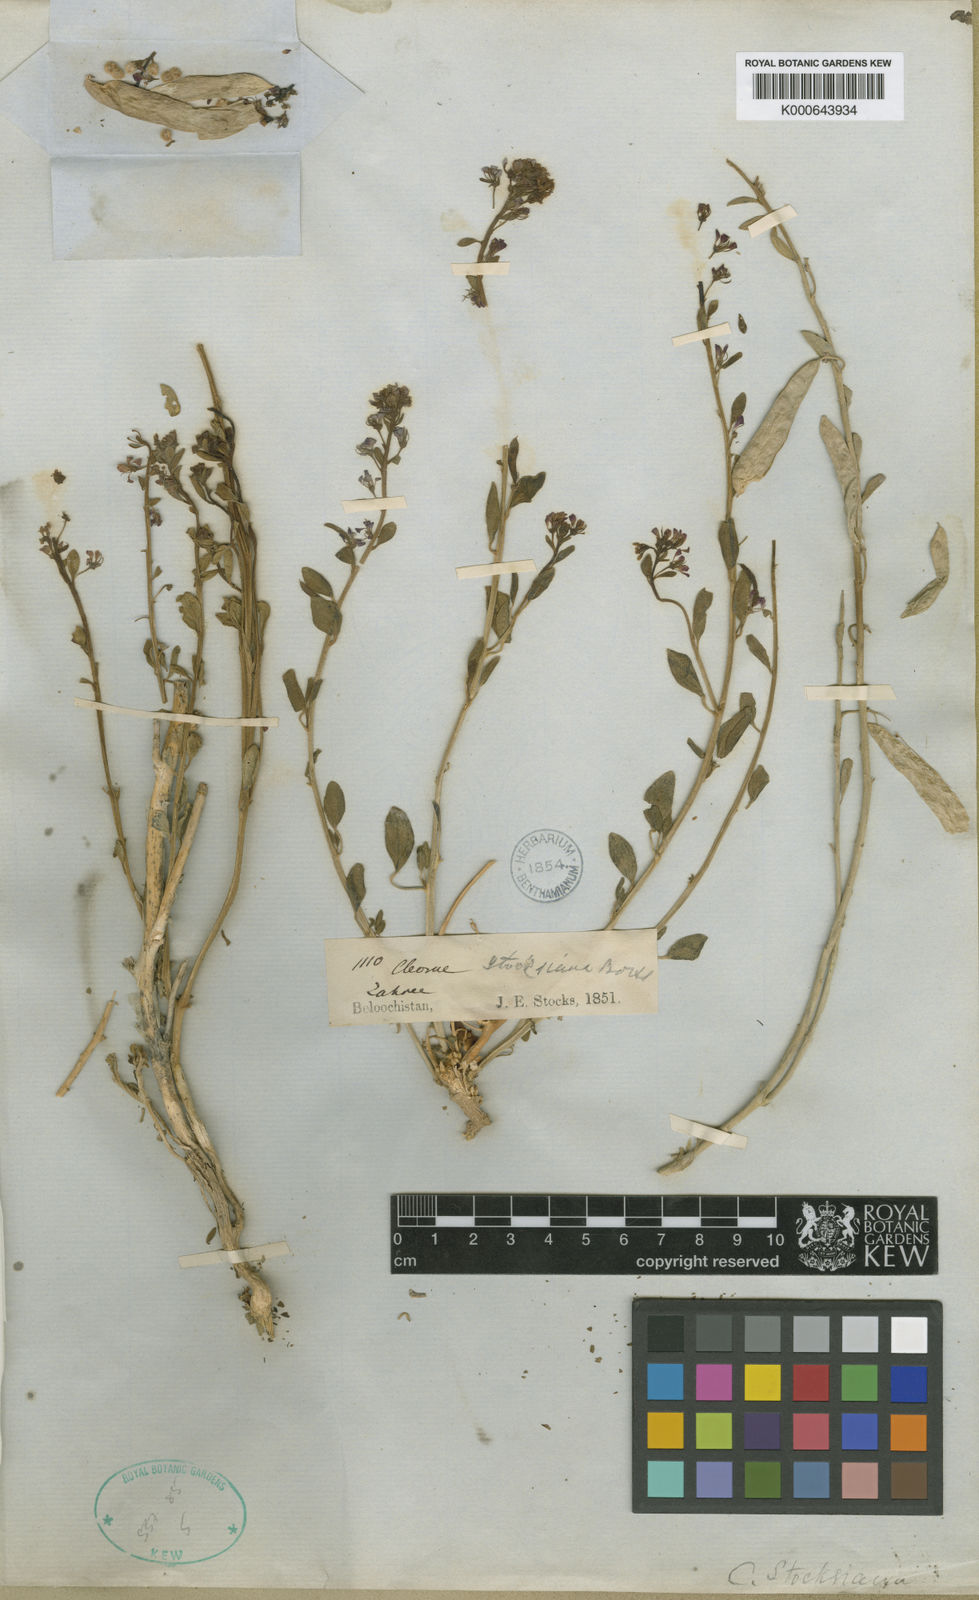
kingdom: Plantae
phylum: Tracheophyta
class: Magnoliopsida
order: Brassicales
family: Cleomaceae
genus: Cleome
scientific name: Cleome rupicola
